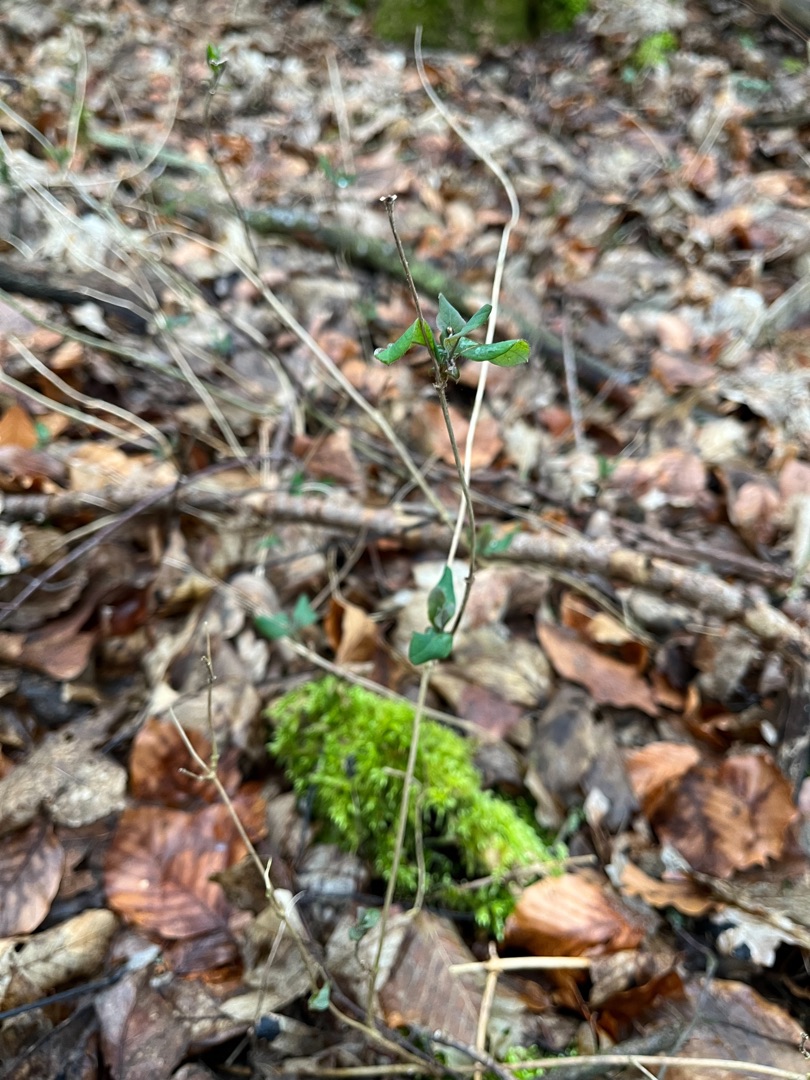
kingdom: Plantae
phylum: Tracheophyta
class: Magnoliopsida
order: Dipsacales
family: Caprifoliaceae
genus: Lonicera
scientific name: Lonicera periclymenum
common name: Almindelig gedeblad
